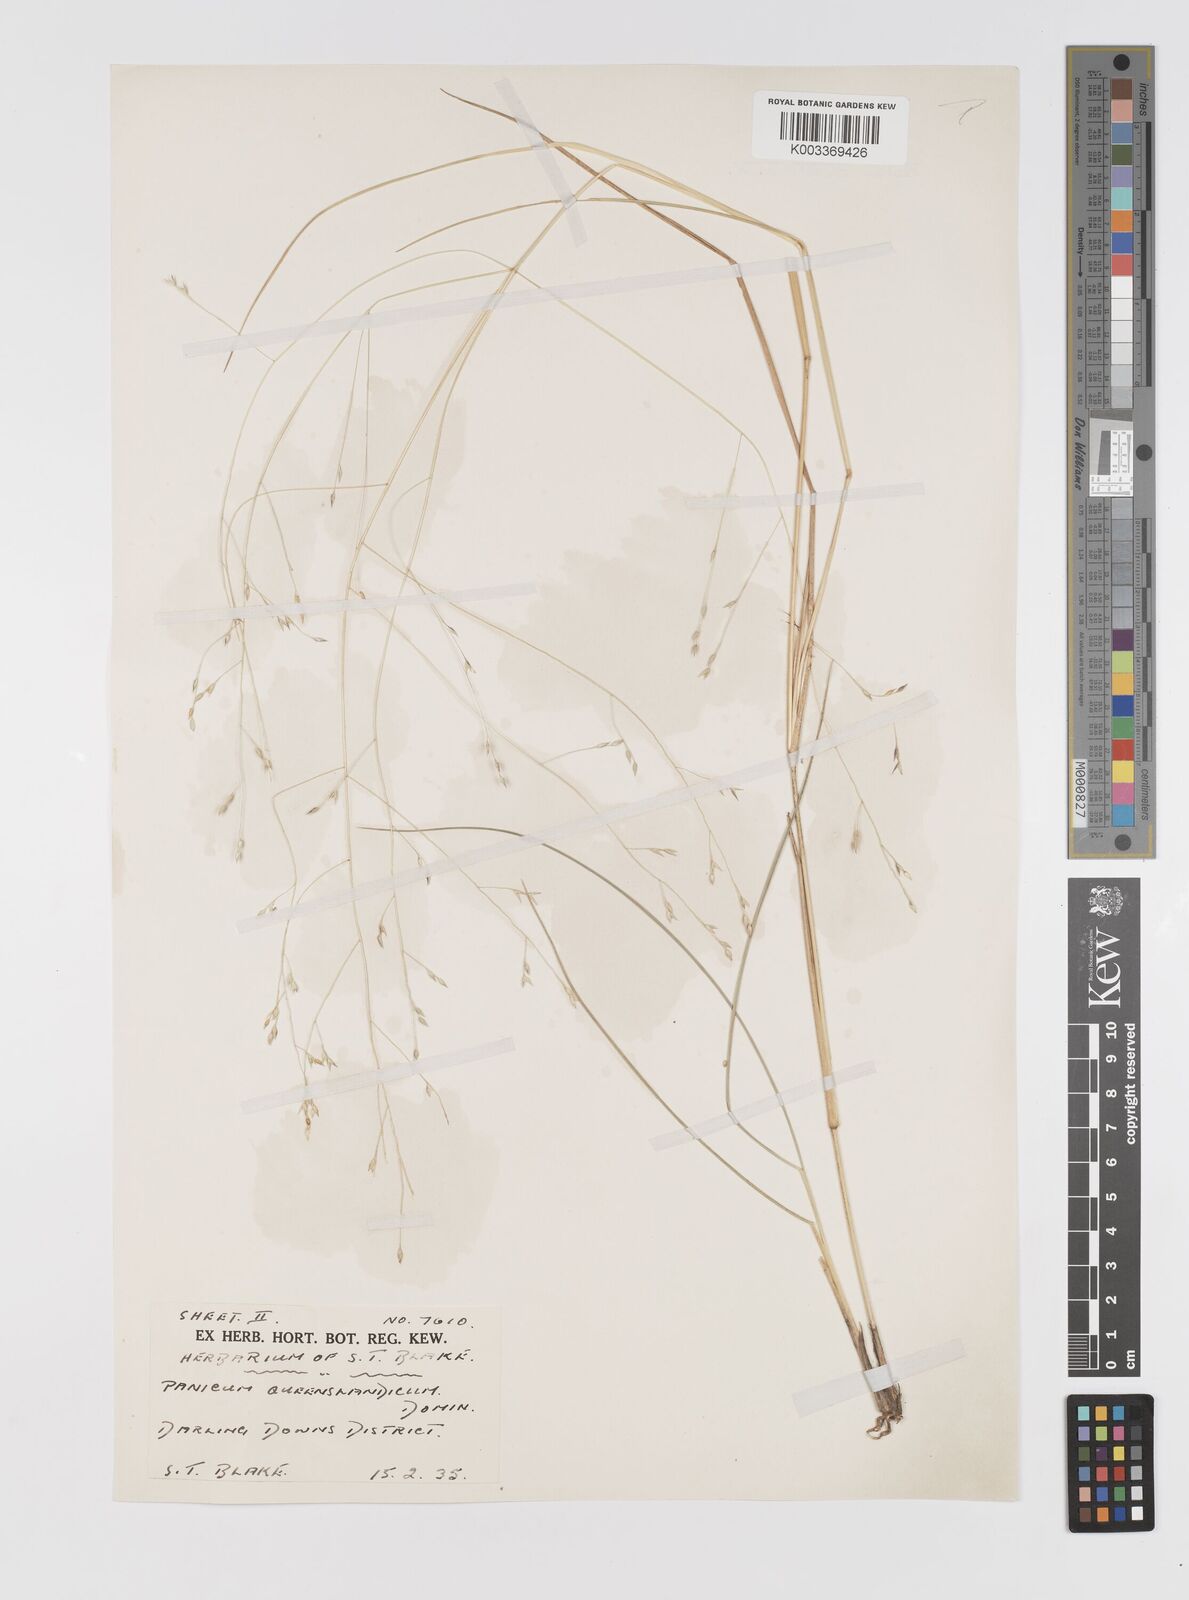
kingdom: Plantae
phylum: Tracheophyta
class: Liliopsida
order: Poales
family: Poaceae
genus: Panicum
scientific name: Panicum queenslandicum
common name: Yabila grass
